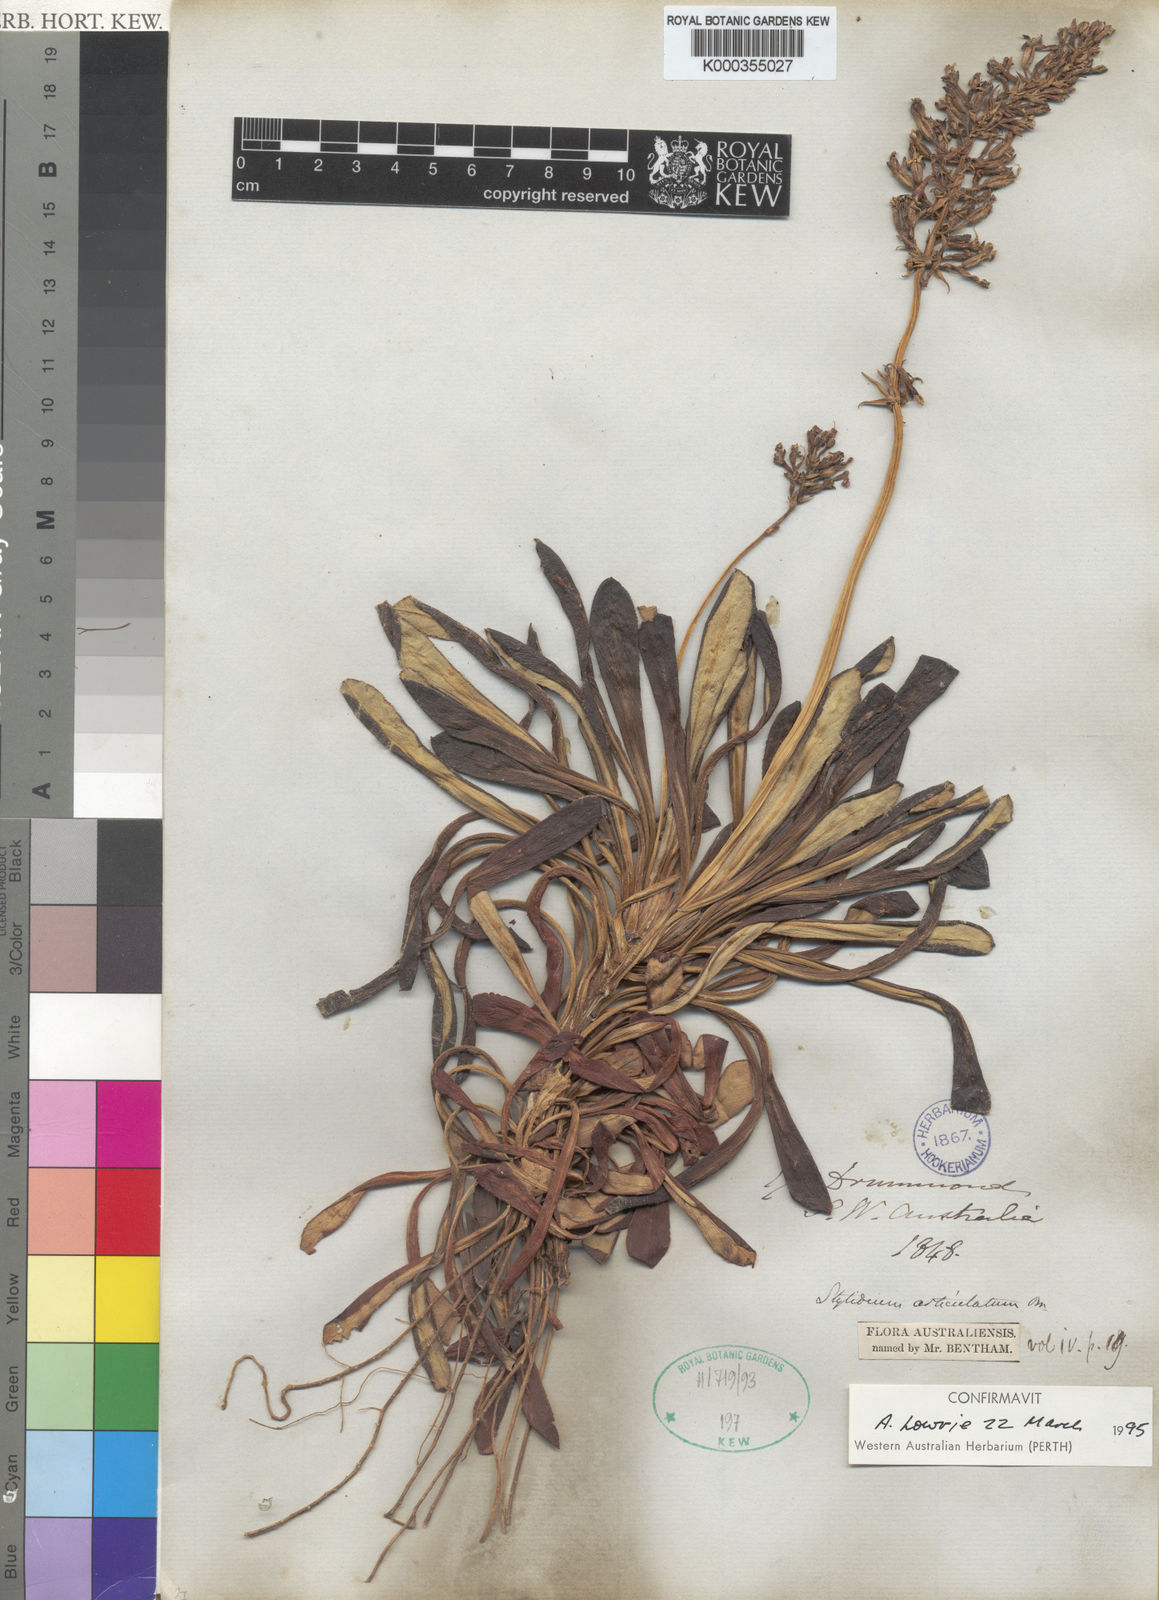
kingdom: Plantae
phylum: Tracheophyta
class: Magnoliopsida
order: Asterales
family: Stylidiaceae
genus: Stylidium
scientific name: Stylidium articulatum
